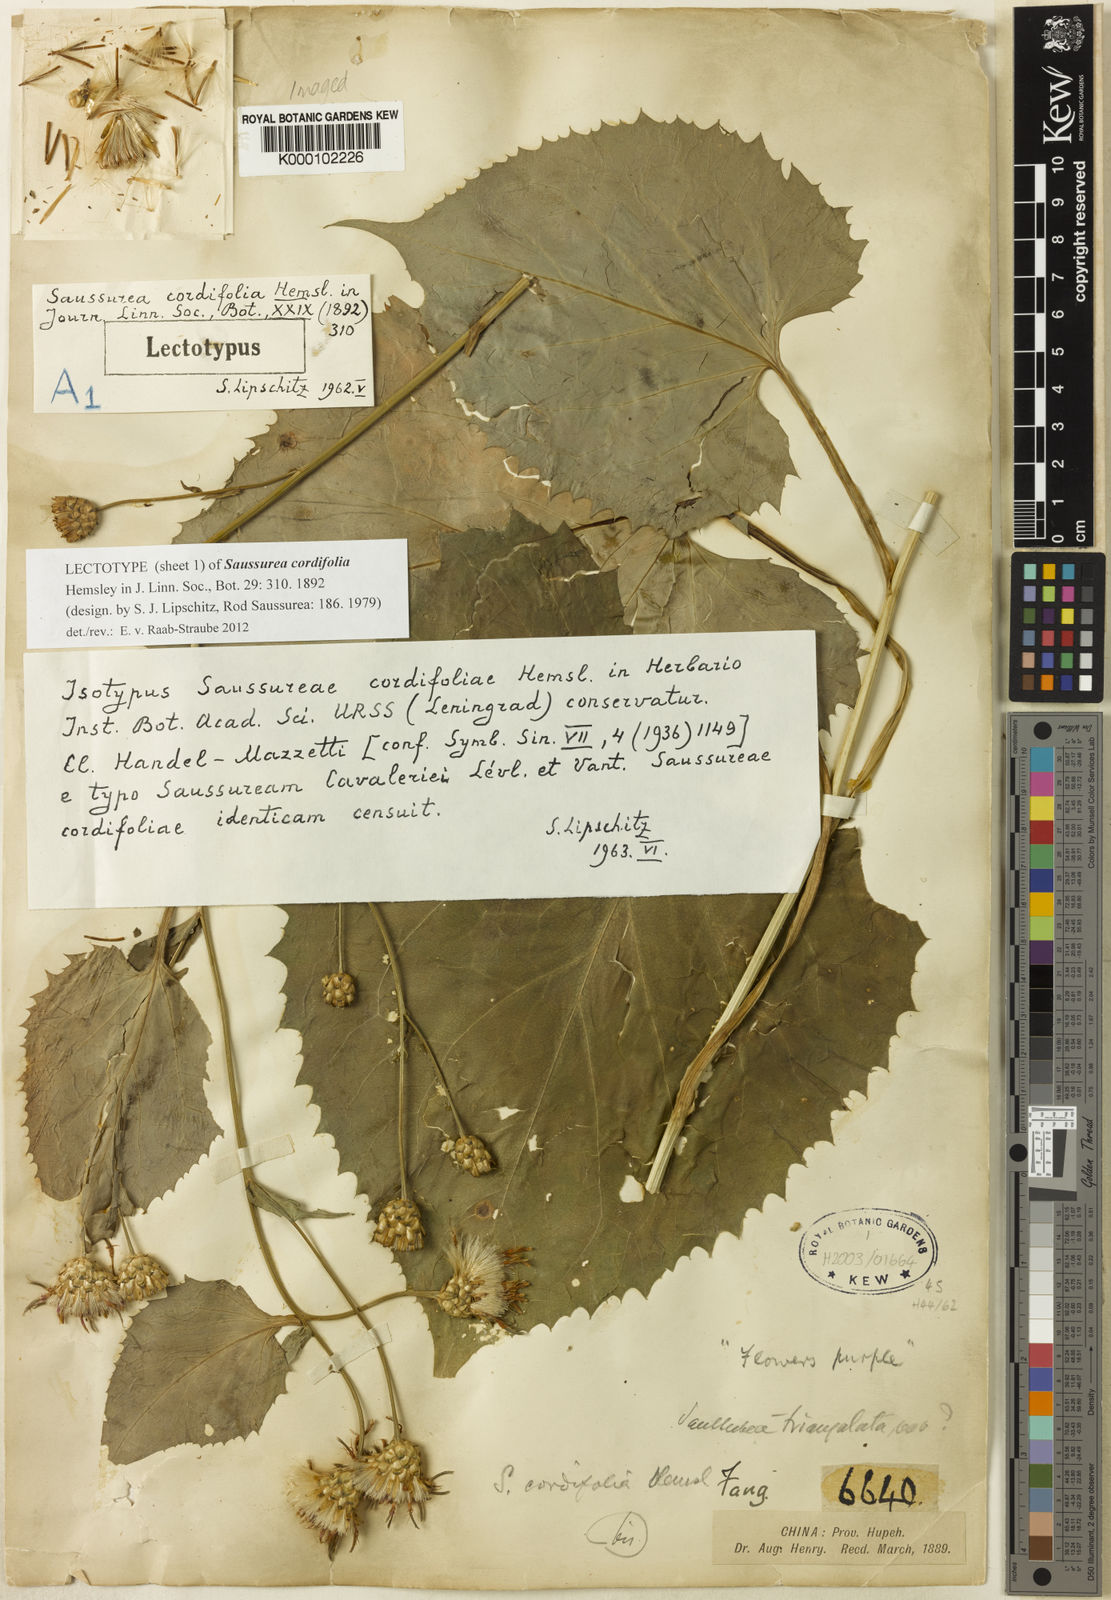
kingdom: Plantae
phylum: Tracheophyta
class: Magnoliopsida
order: Asterales
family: Asteraceae
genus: Saussurea
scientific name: Saussurea cordifolia
